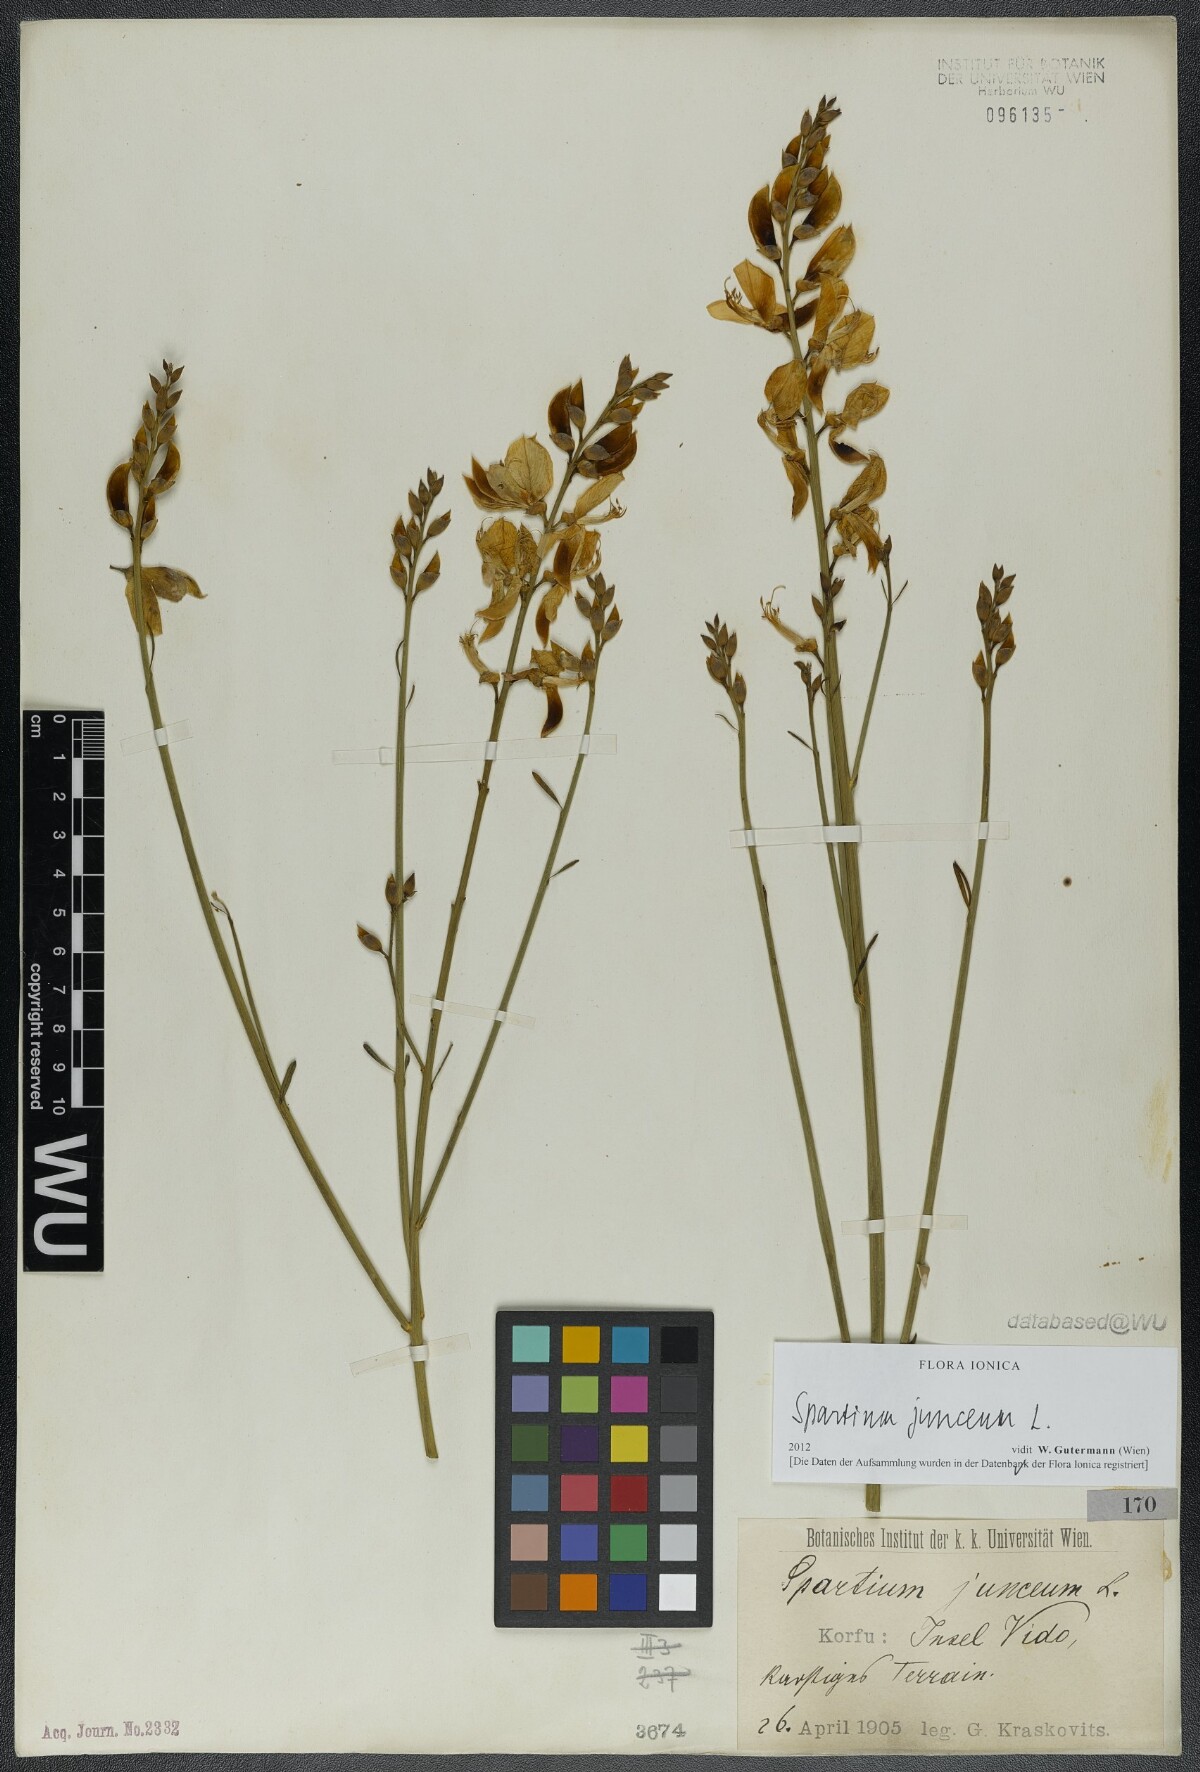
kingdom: Plantae
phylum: Tracheophyta
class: Magnoliopsida
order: Fabales
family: Fabaceae
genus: Spartium
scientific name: Spartium junceum
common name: Spanish broom
